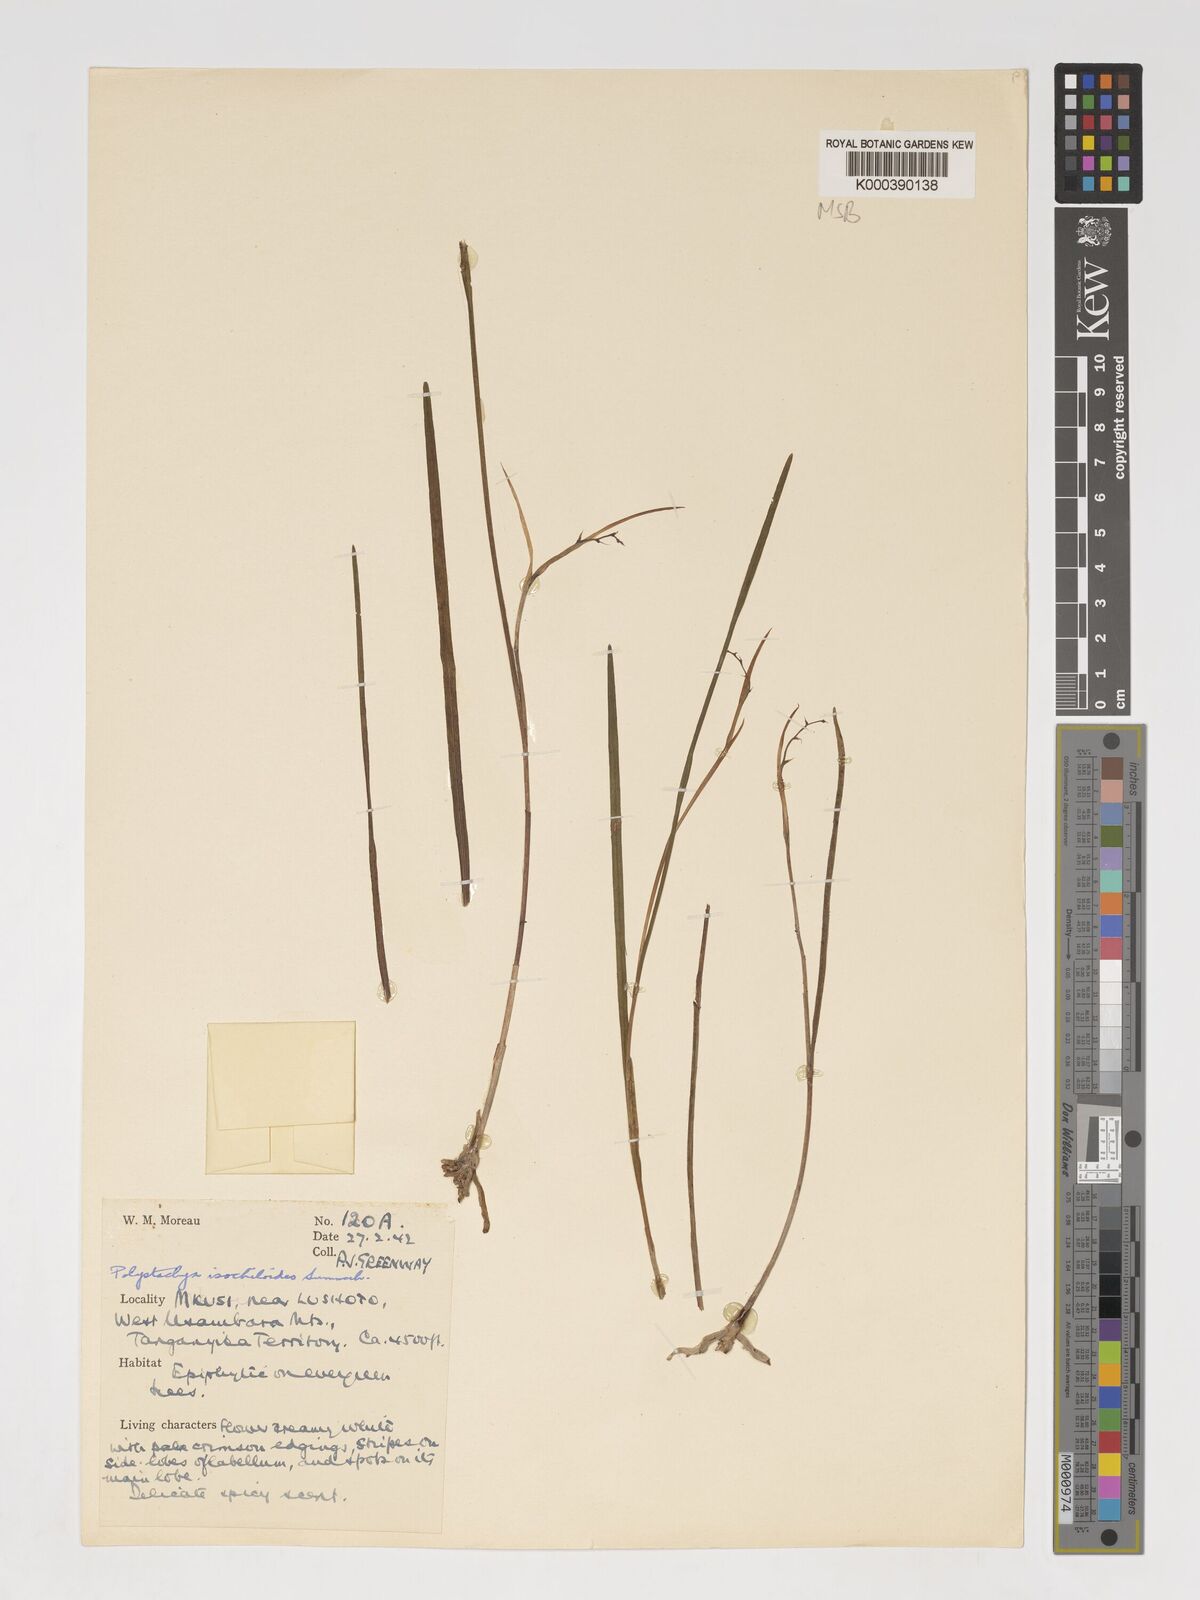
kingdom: Plantae
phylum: Tracheophyta
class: Liliopsida
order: Asparagales
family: Orchidaceae
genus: Polystachya
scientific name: Polystachya isochiloides
